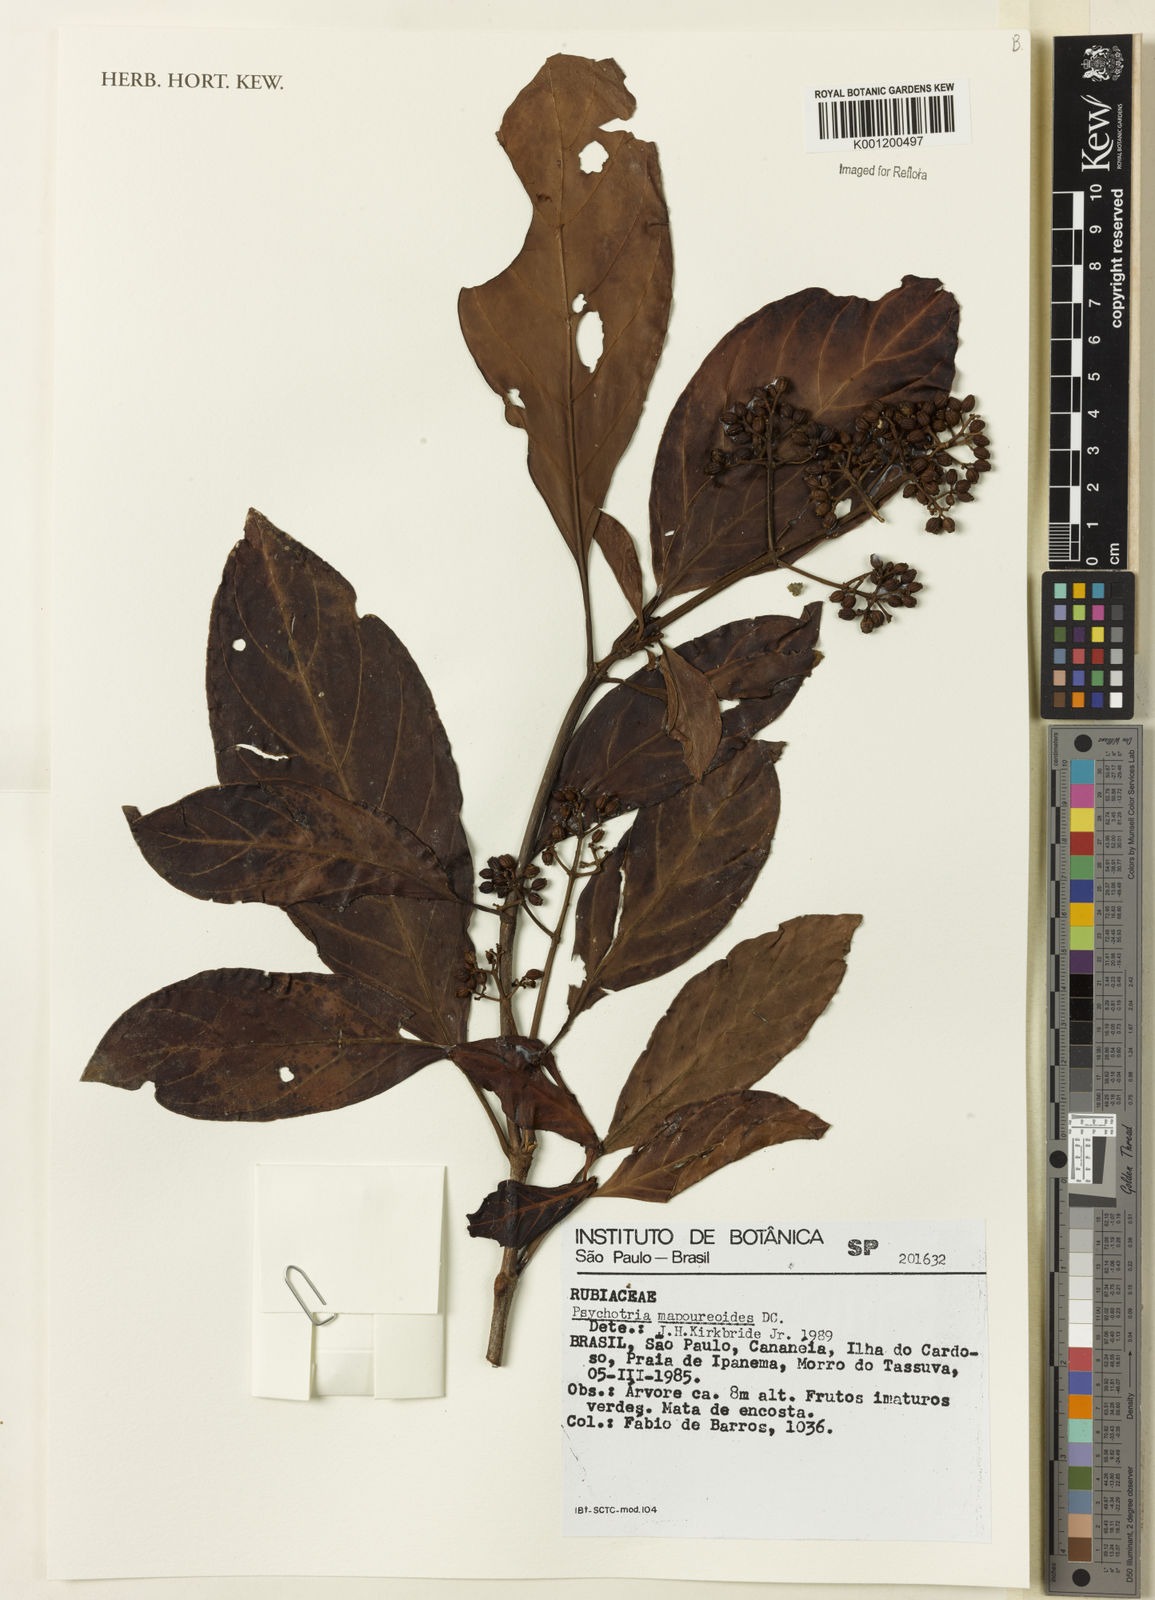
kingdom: Plantae
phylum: Tracheophyta
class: Magnoliopsida
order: Gentianales
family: Rubiaceae
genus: Psychotria
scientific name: Psychotria carthagenensis
